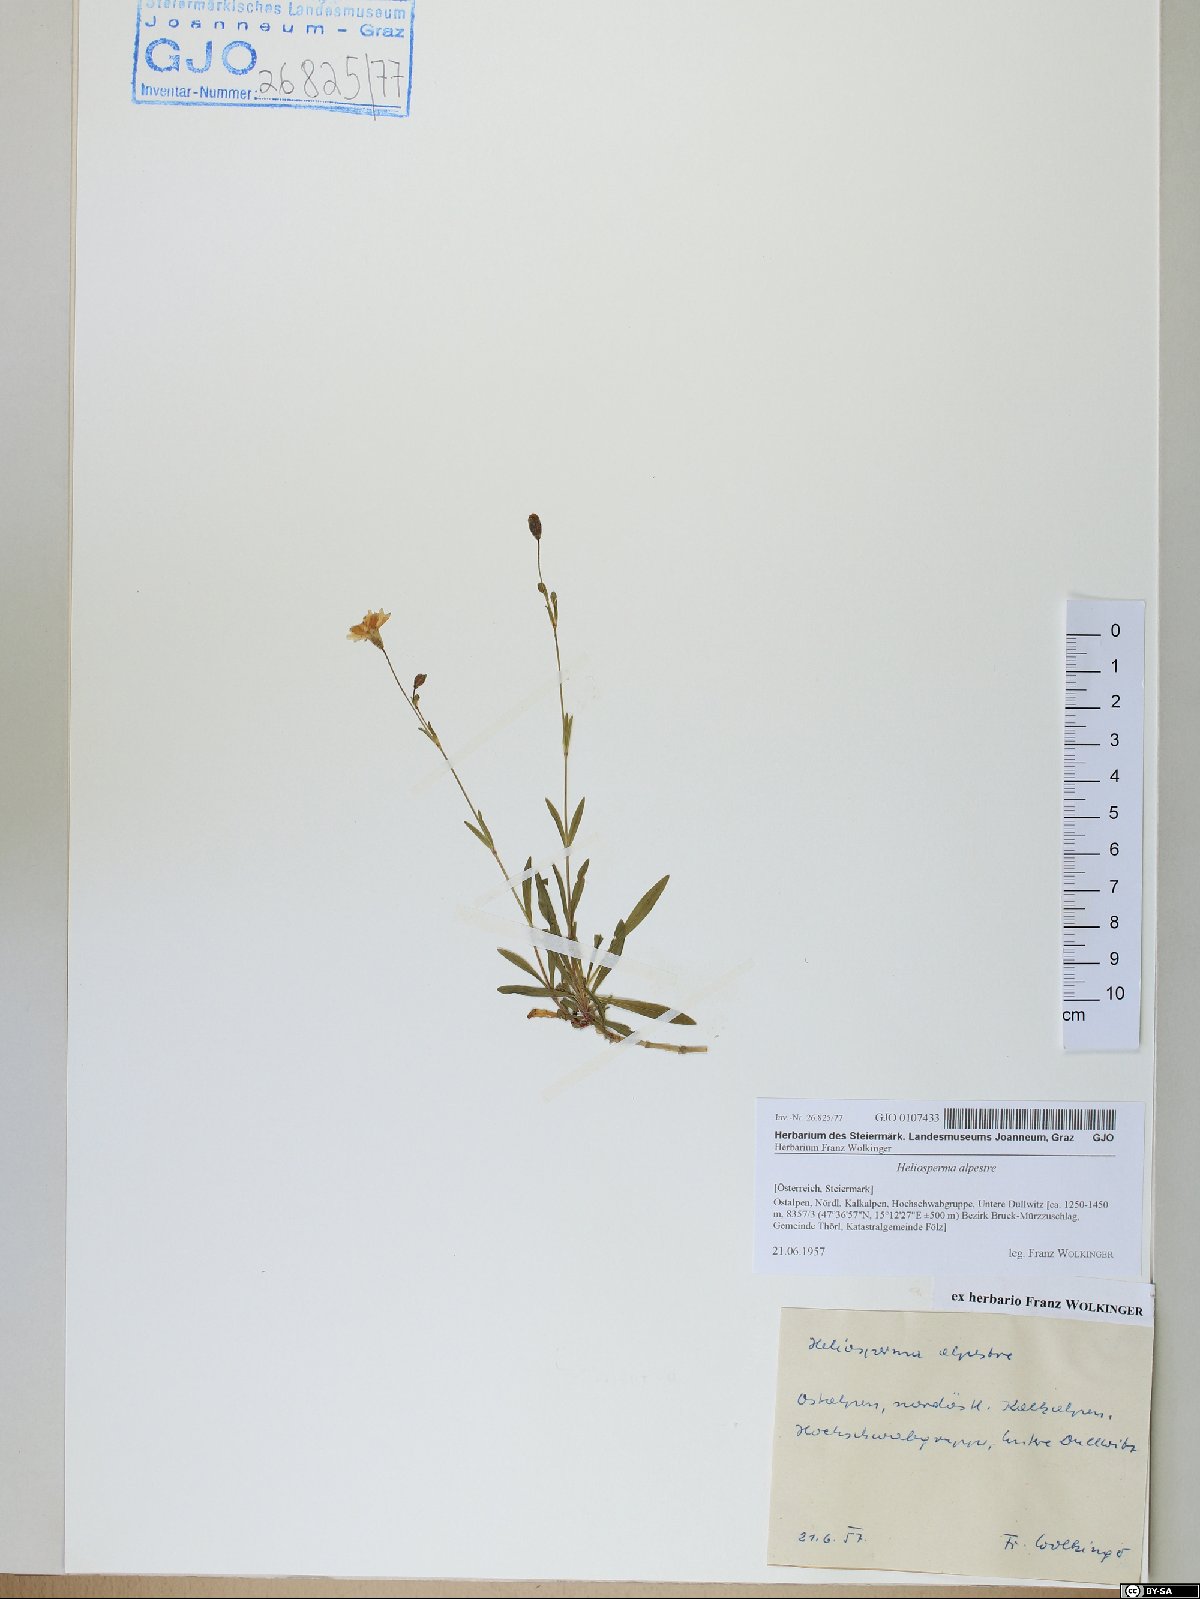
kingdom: Plantae
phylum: Tracheophyta
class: Magnoliopsida
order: Caryophyllales
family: Caryophyllaceae
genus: Heliosperma
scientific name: Heliosperma alpestre
